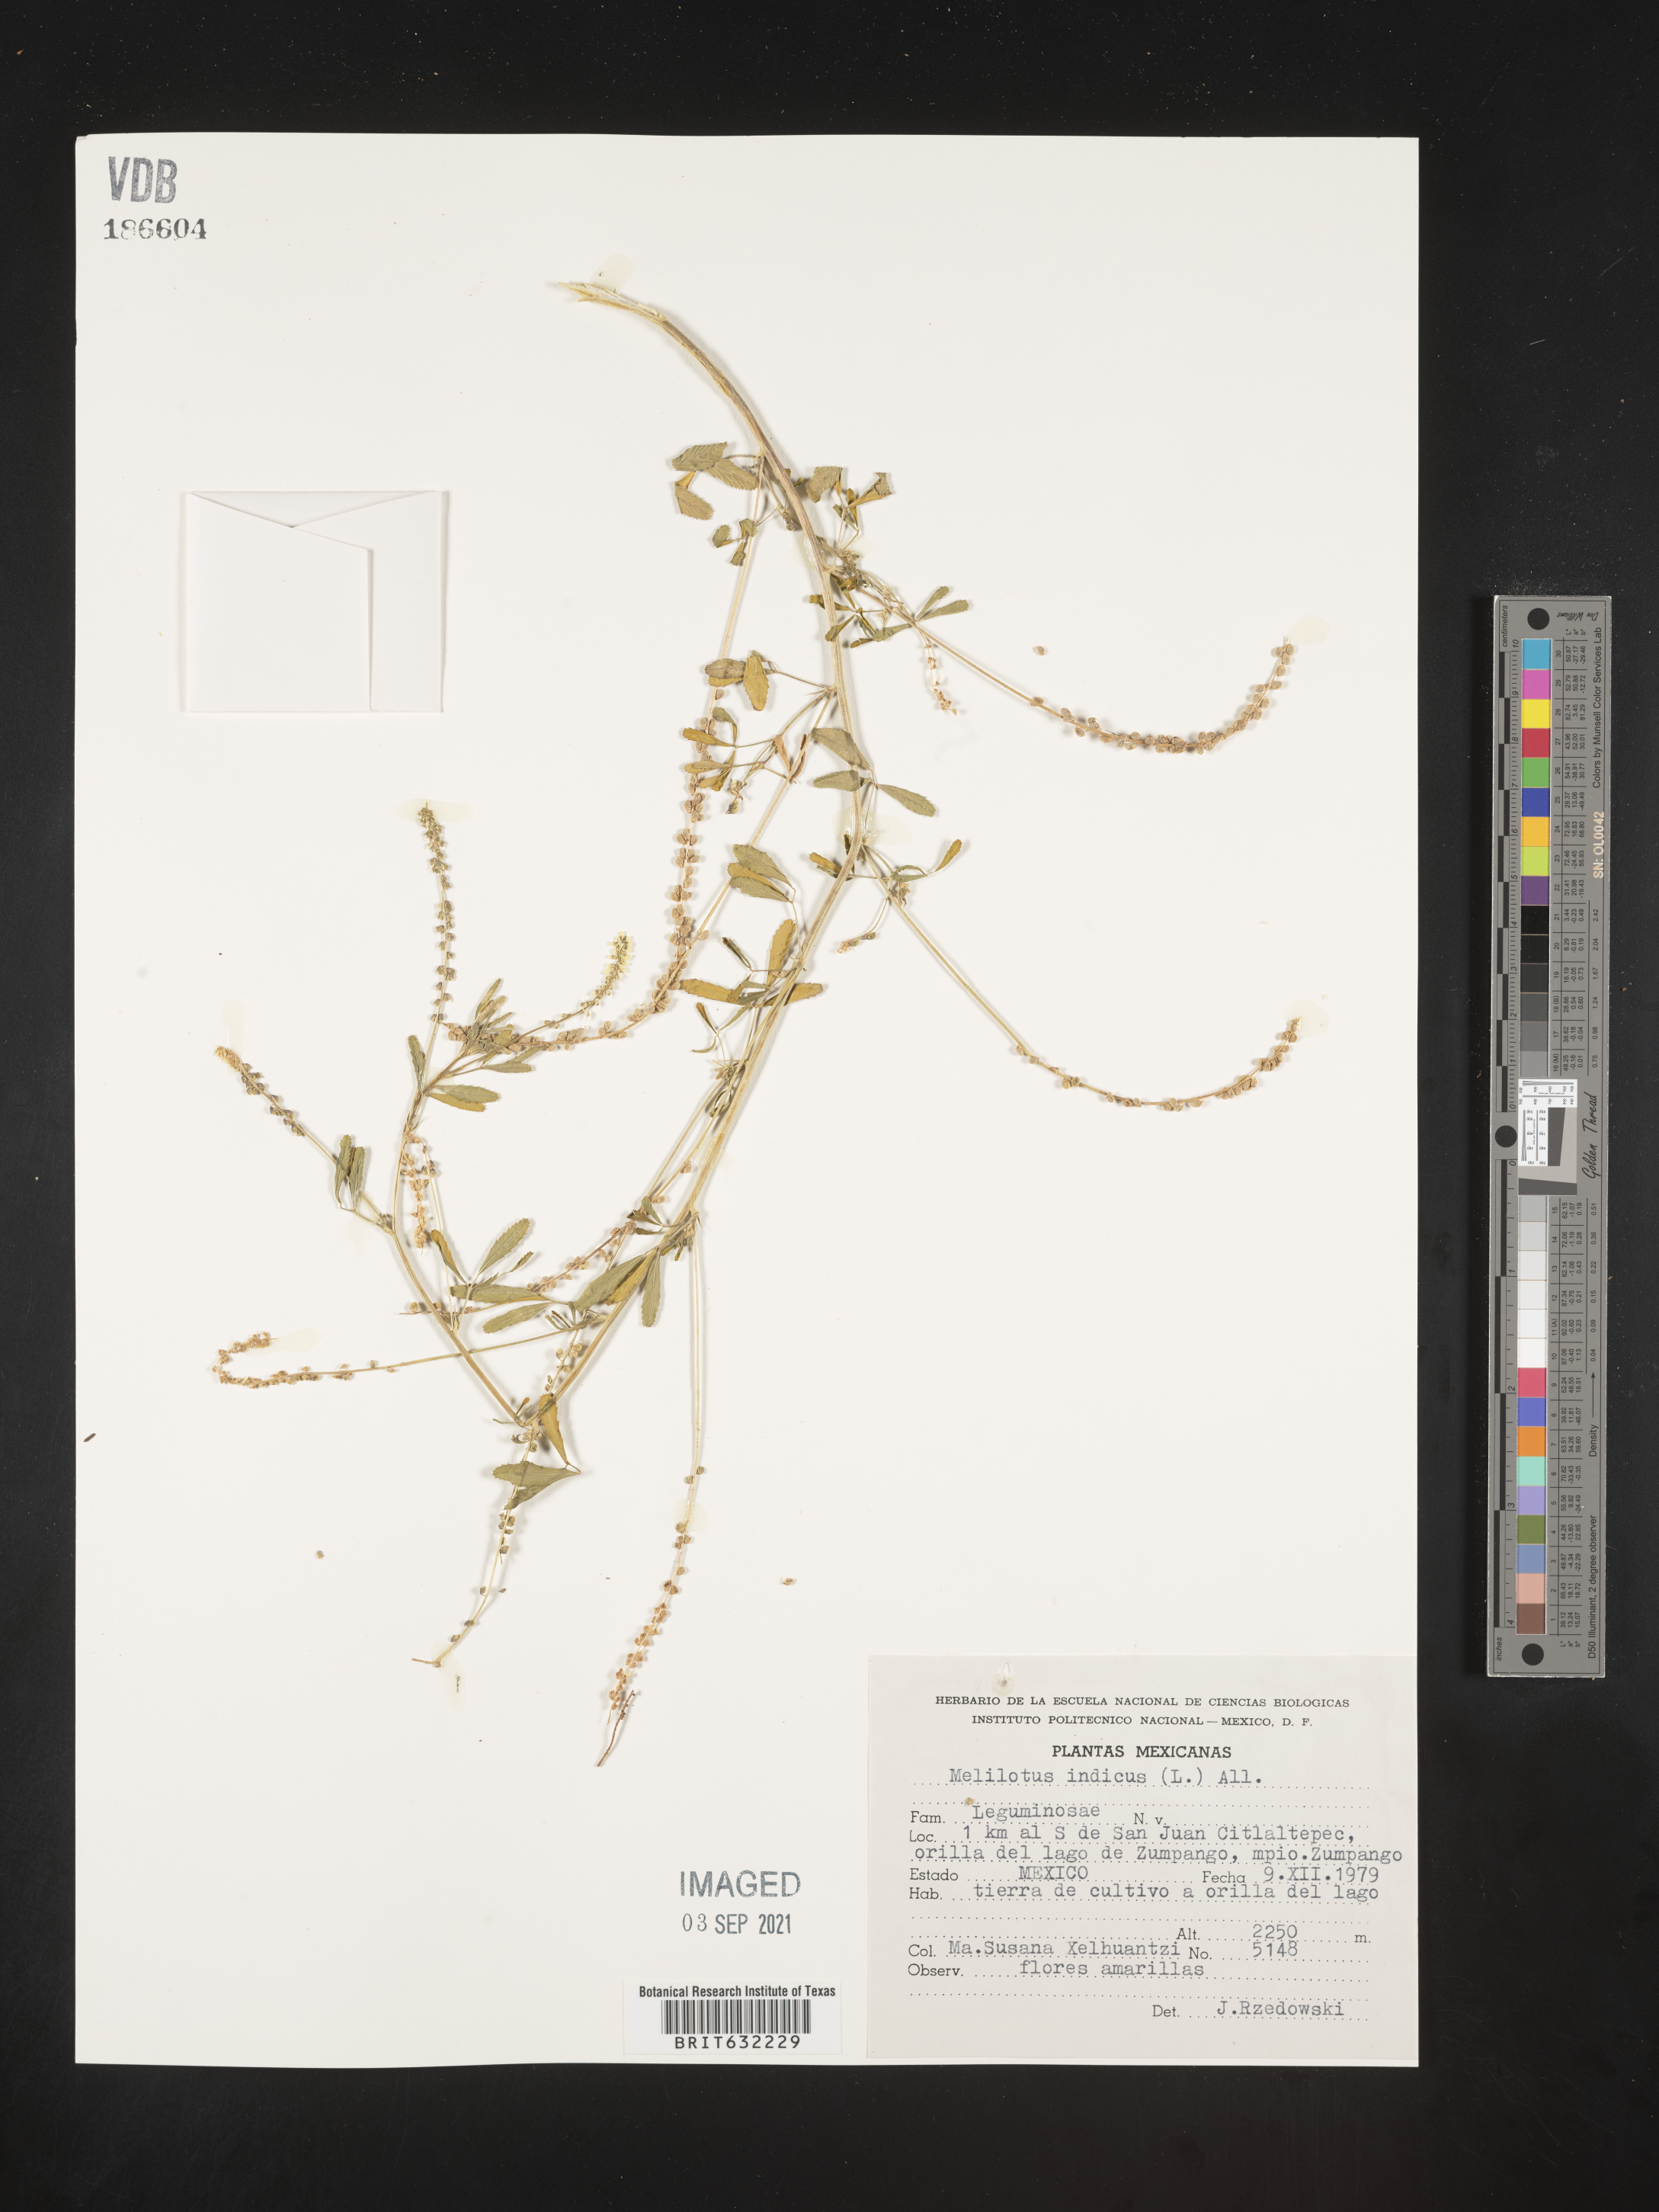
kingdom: Plantae
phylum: Tracheophyta
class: Magnoliopsida
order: Fabales
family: Fabaceae
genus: Melilotus
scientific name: Melilotus
